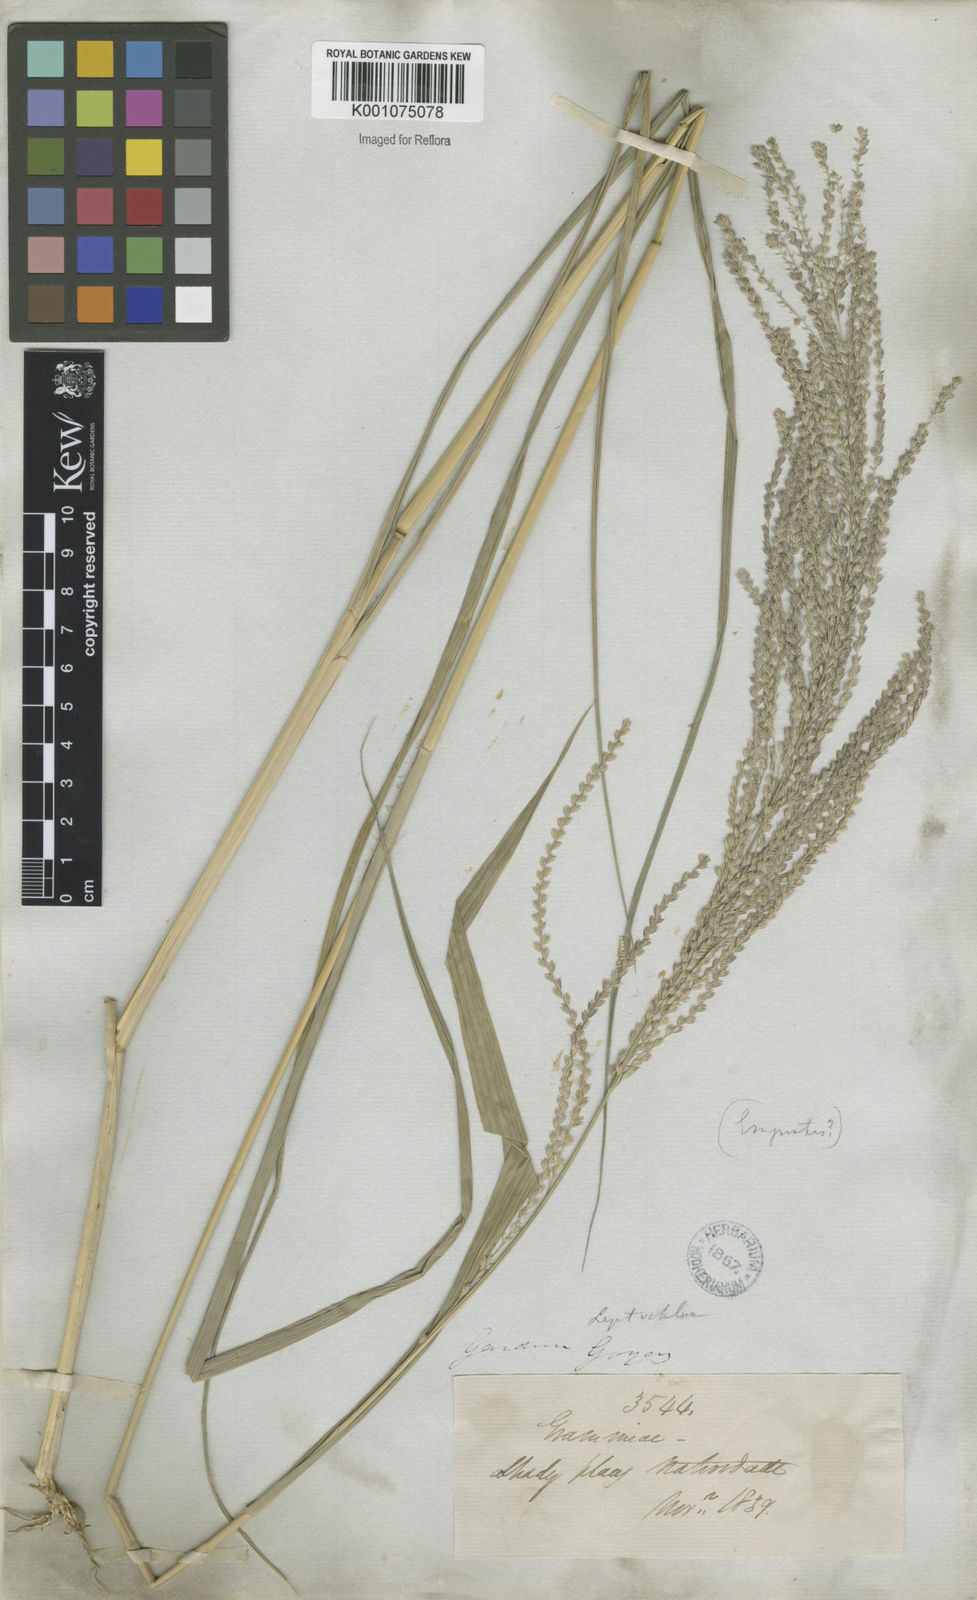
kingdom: Plantae
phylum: Tracheophyta
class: Liliopsida
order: Poales
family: Poaceae
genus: Leptochloa
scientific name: Leptochloa virgata
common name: Tropical sprangletop
